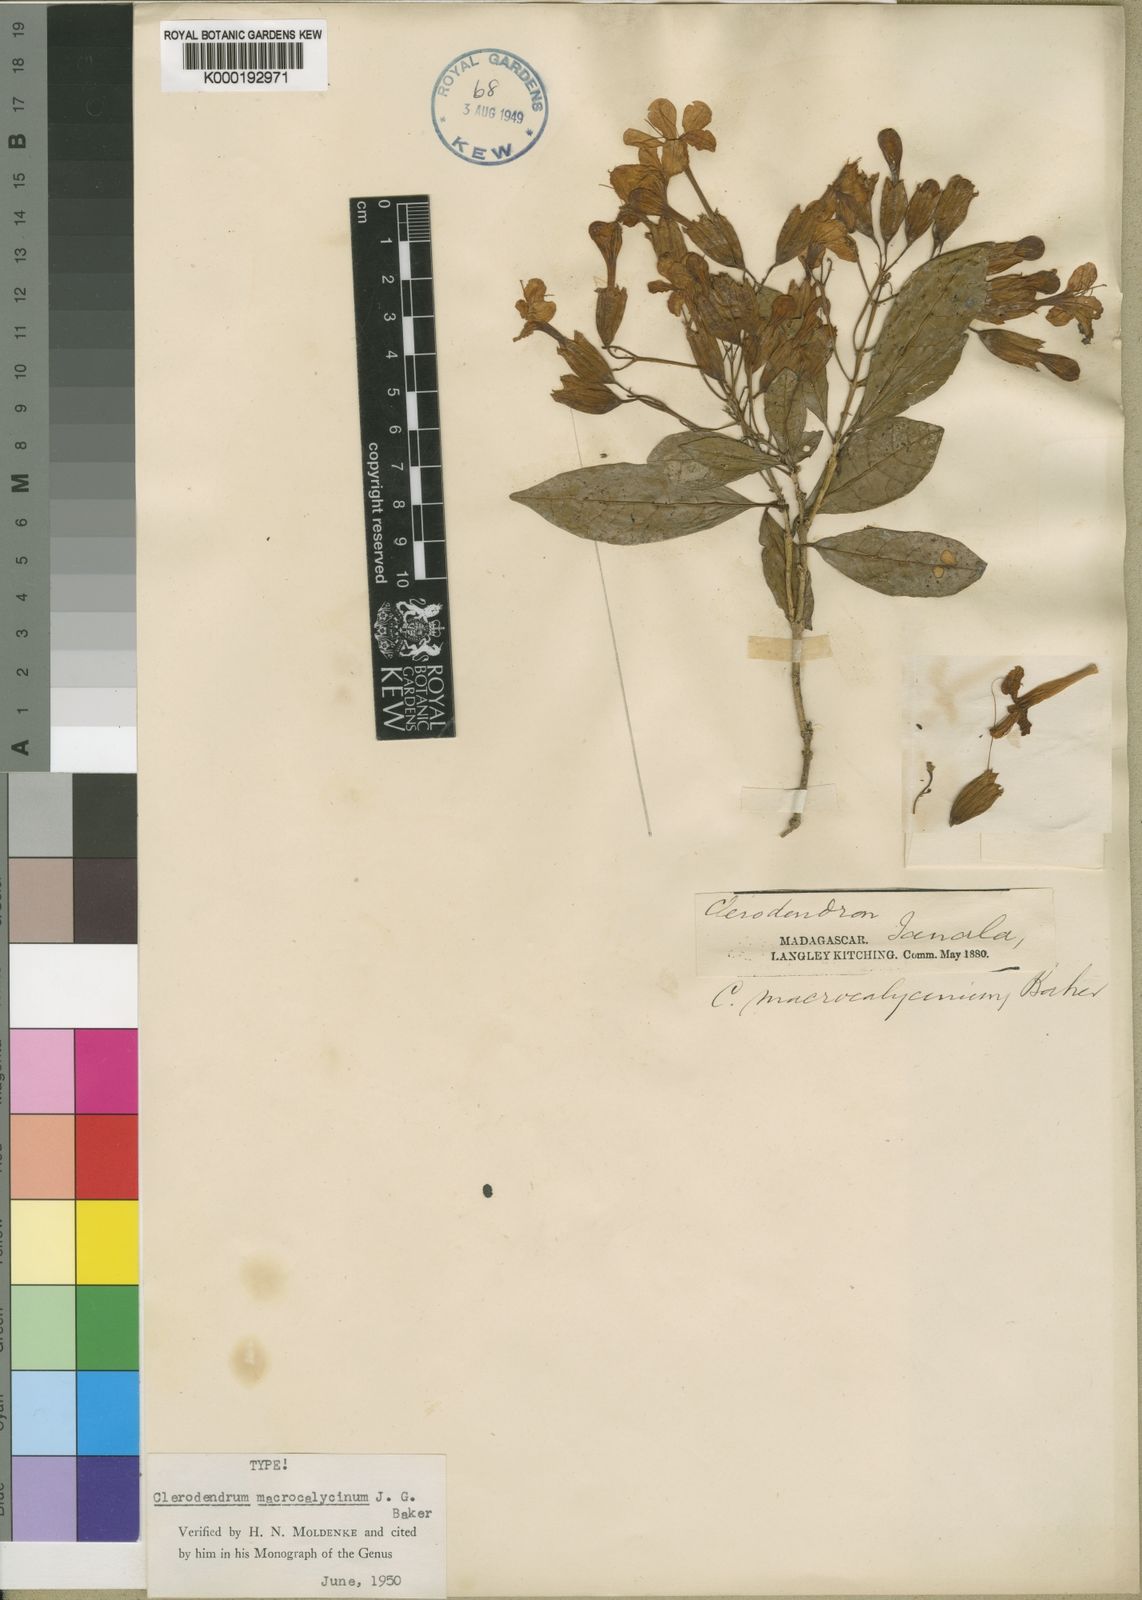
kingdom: Plantae
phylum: Tracheophyta
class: Magnoliopsida
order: Lamiales
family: Lamiaceae
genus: Clerodendrum
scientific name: Clerodendrum macrocalycinum
